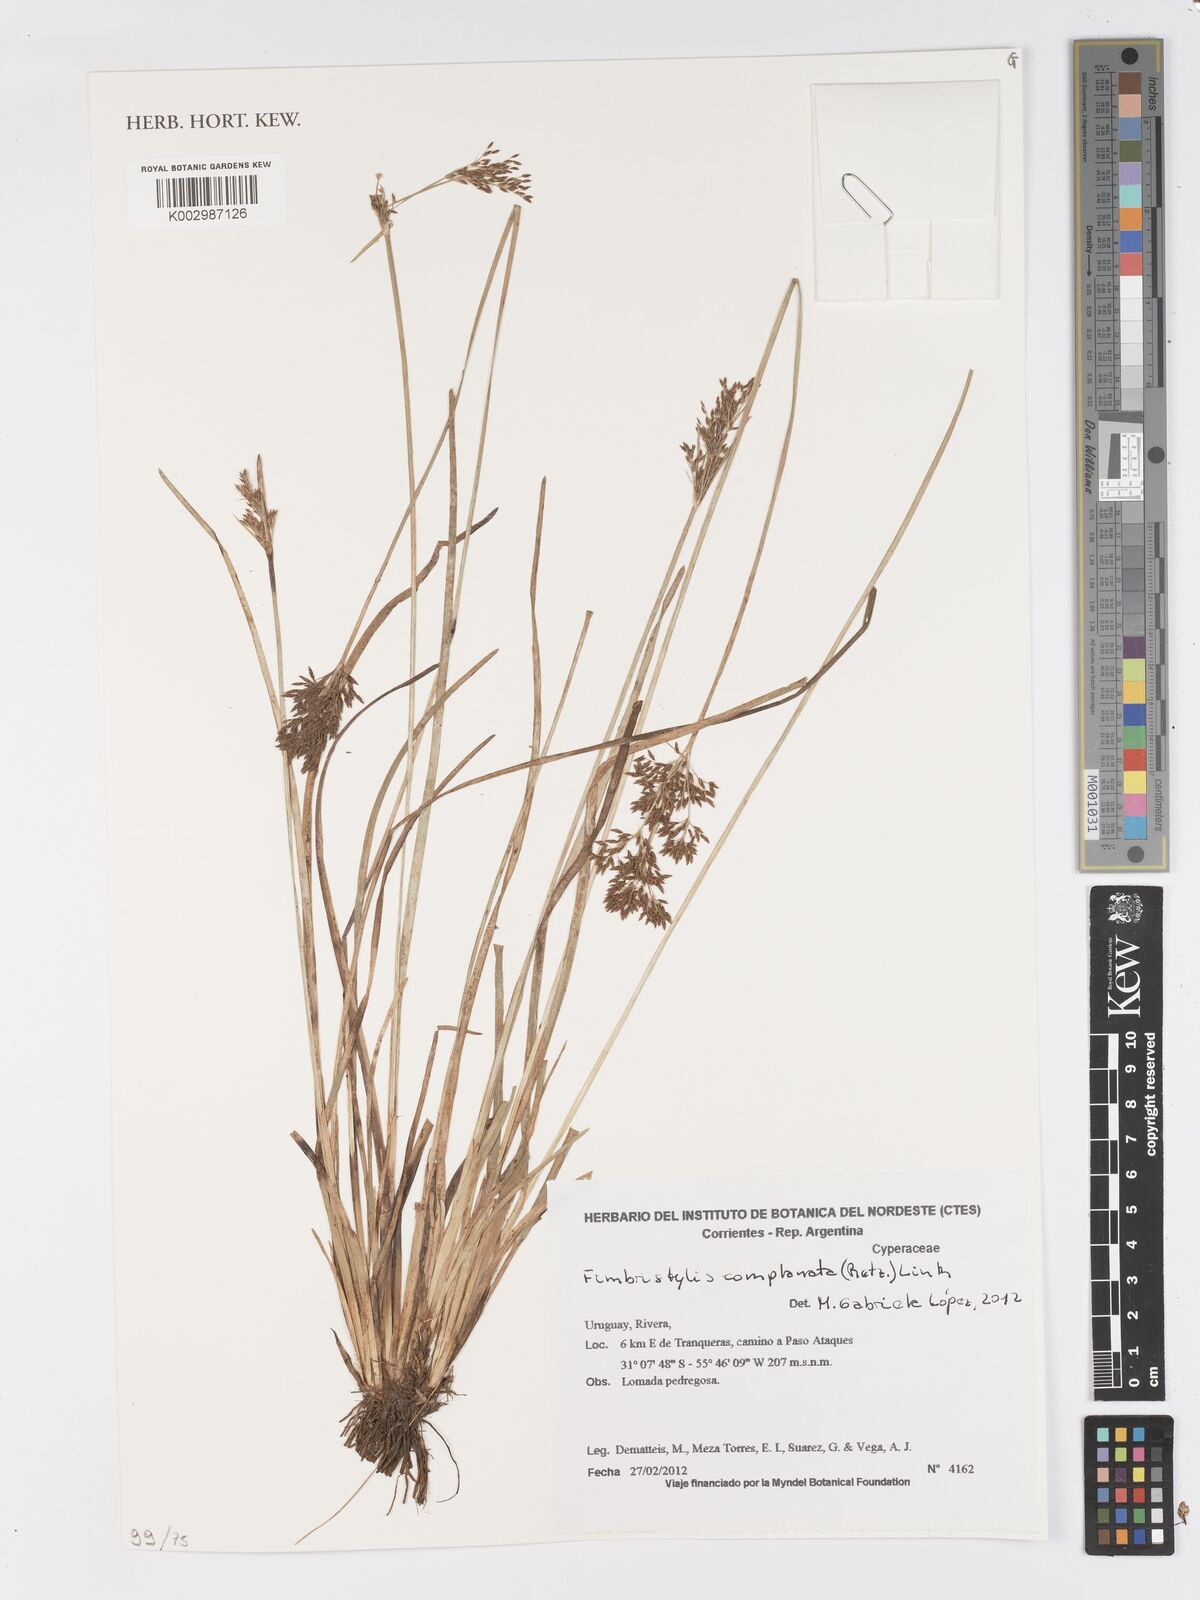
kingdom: Plantae
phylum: Tracheophyta
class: Liliopsida
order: Poales
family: Cyperaceae
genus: Fimbristylis
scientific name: Fimbristylis complanata
